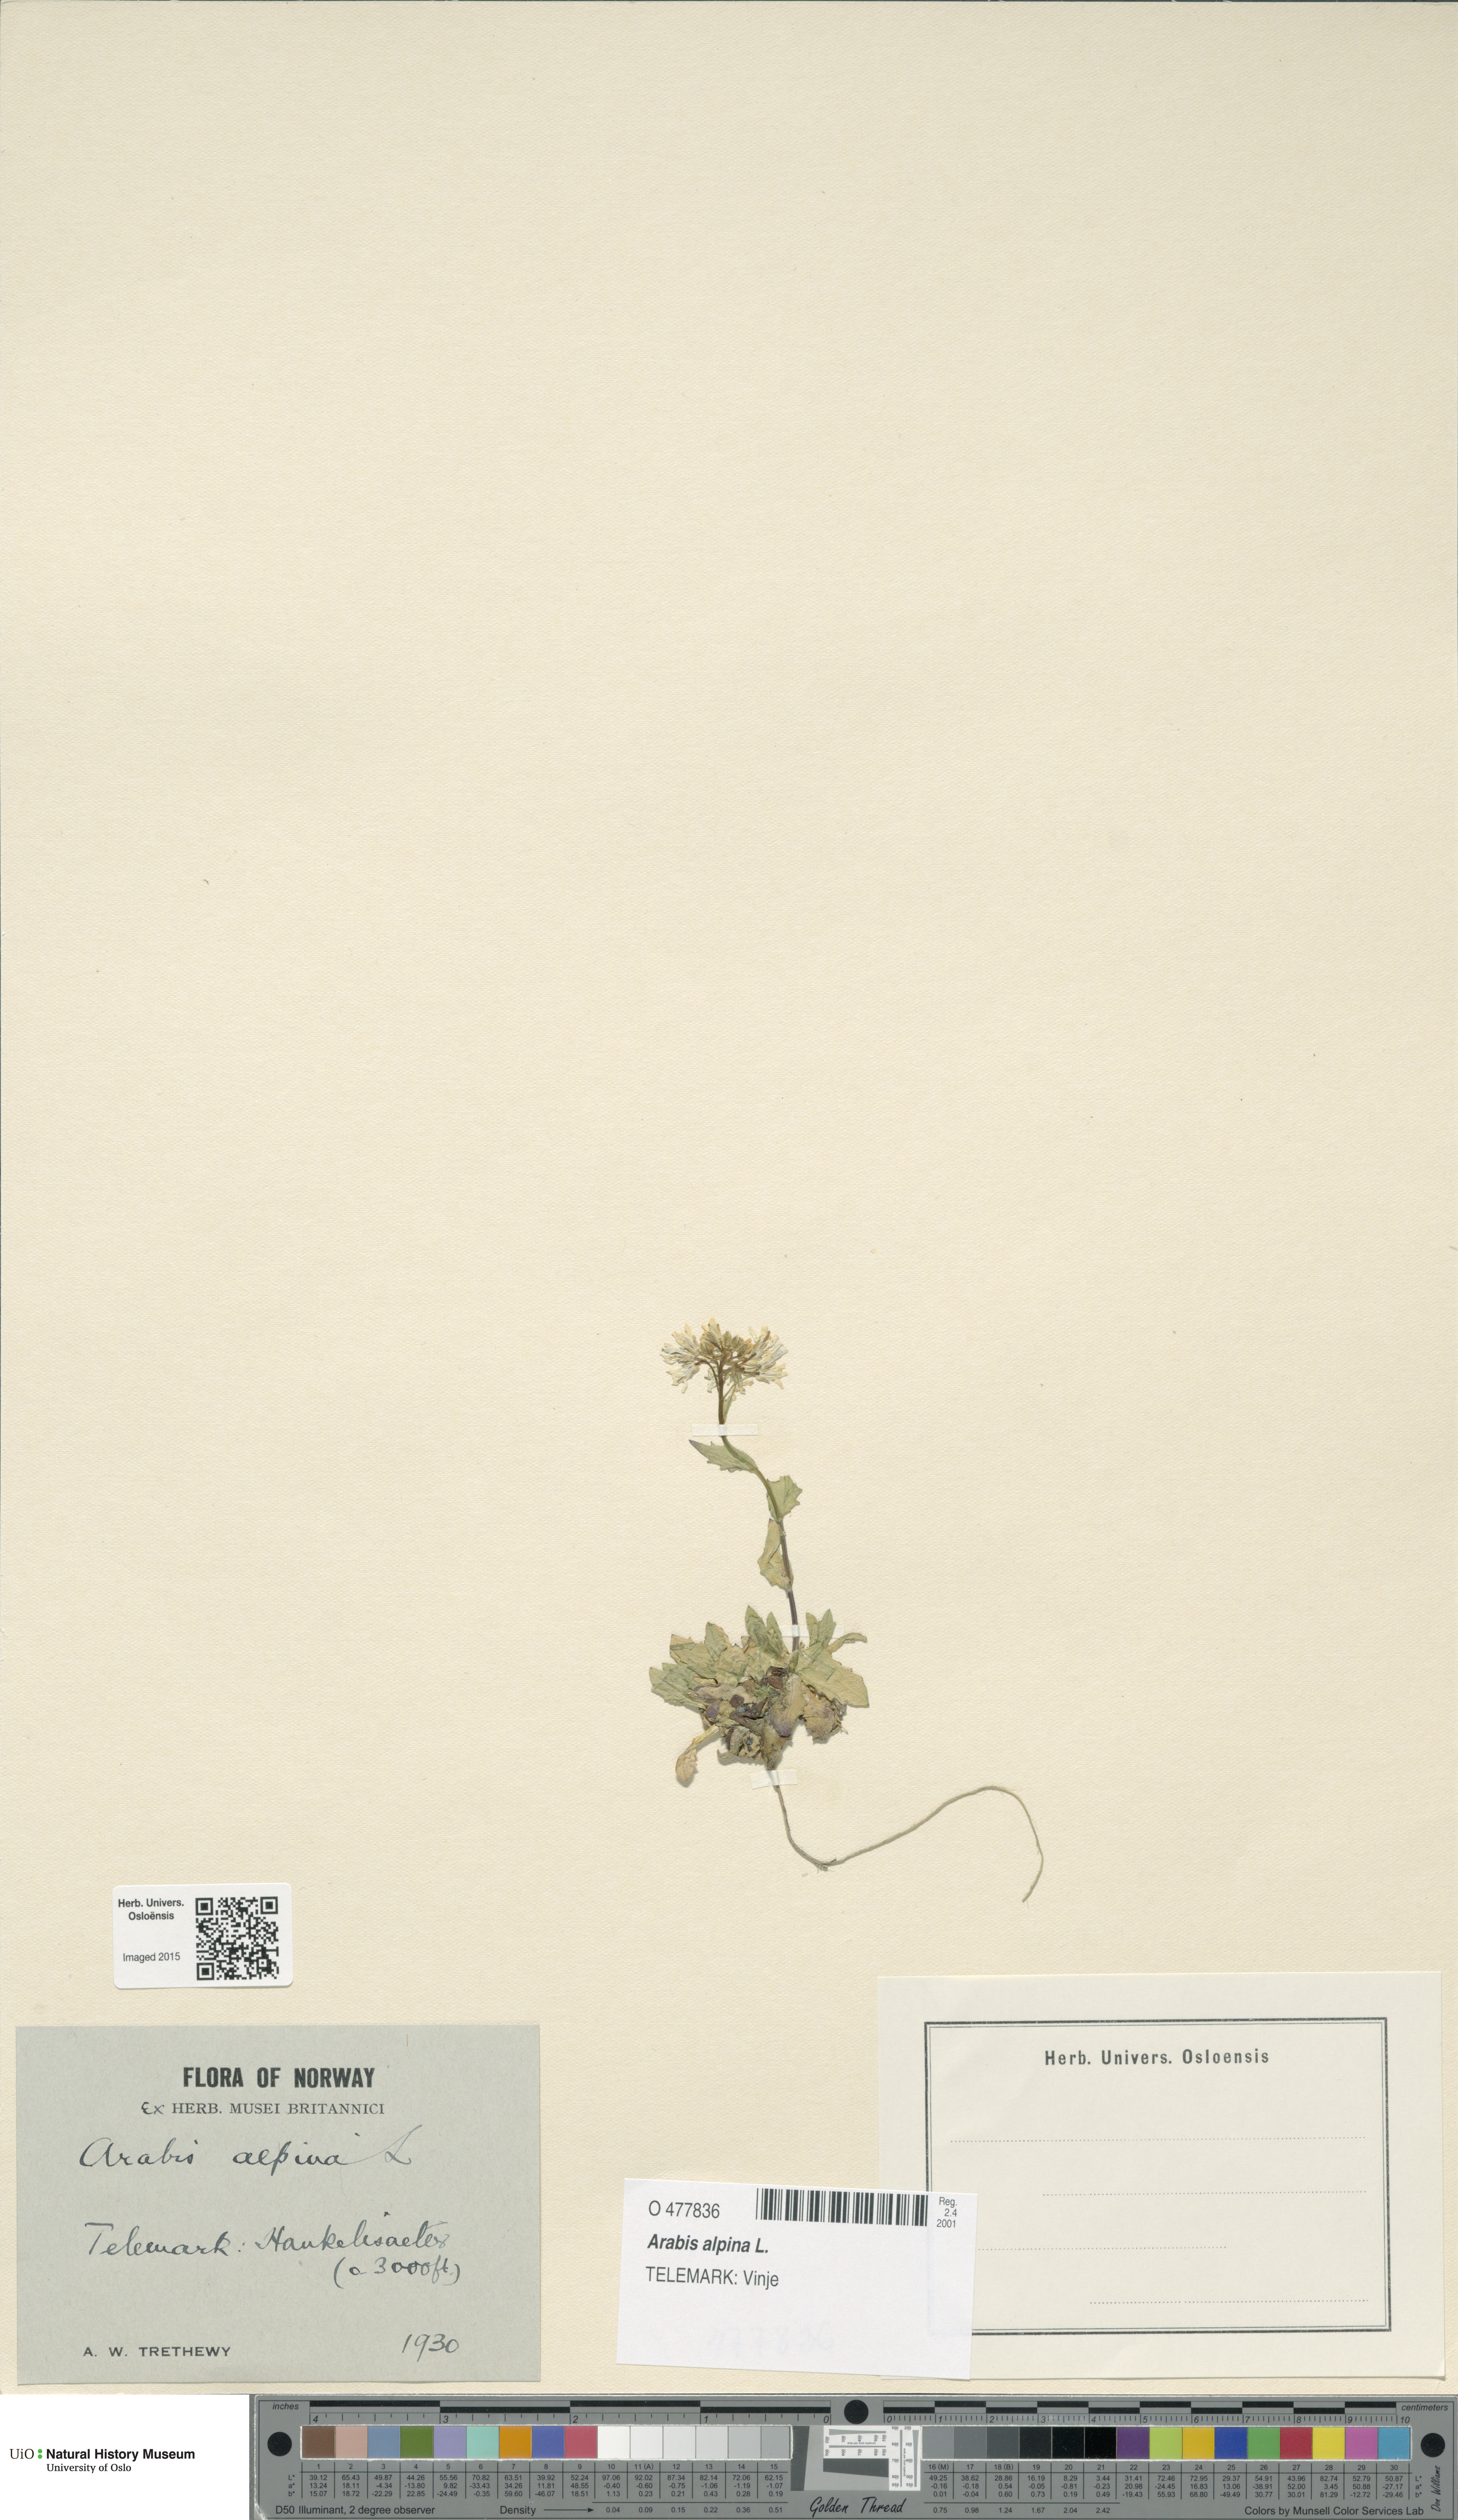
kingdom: Plantae
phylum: Tracheophyta
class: Magnoliopsida
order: Brassicales
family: Brassicaceae
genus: Arabis
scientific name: Arabis alpina
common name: Alpine rock-cress
